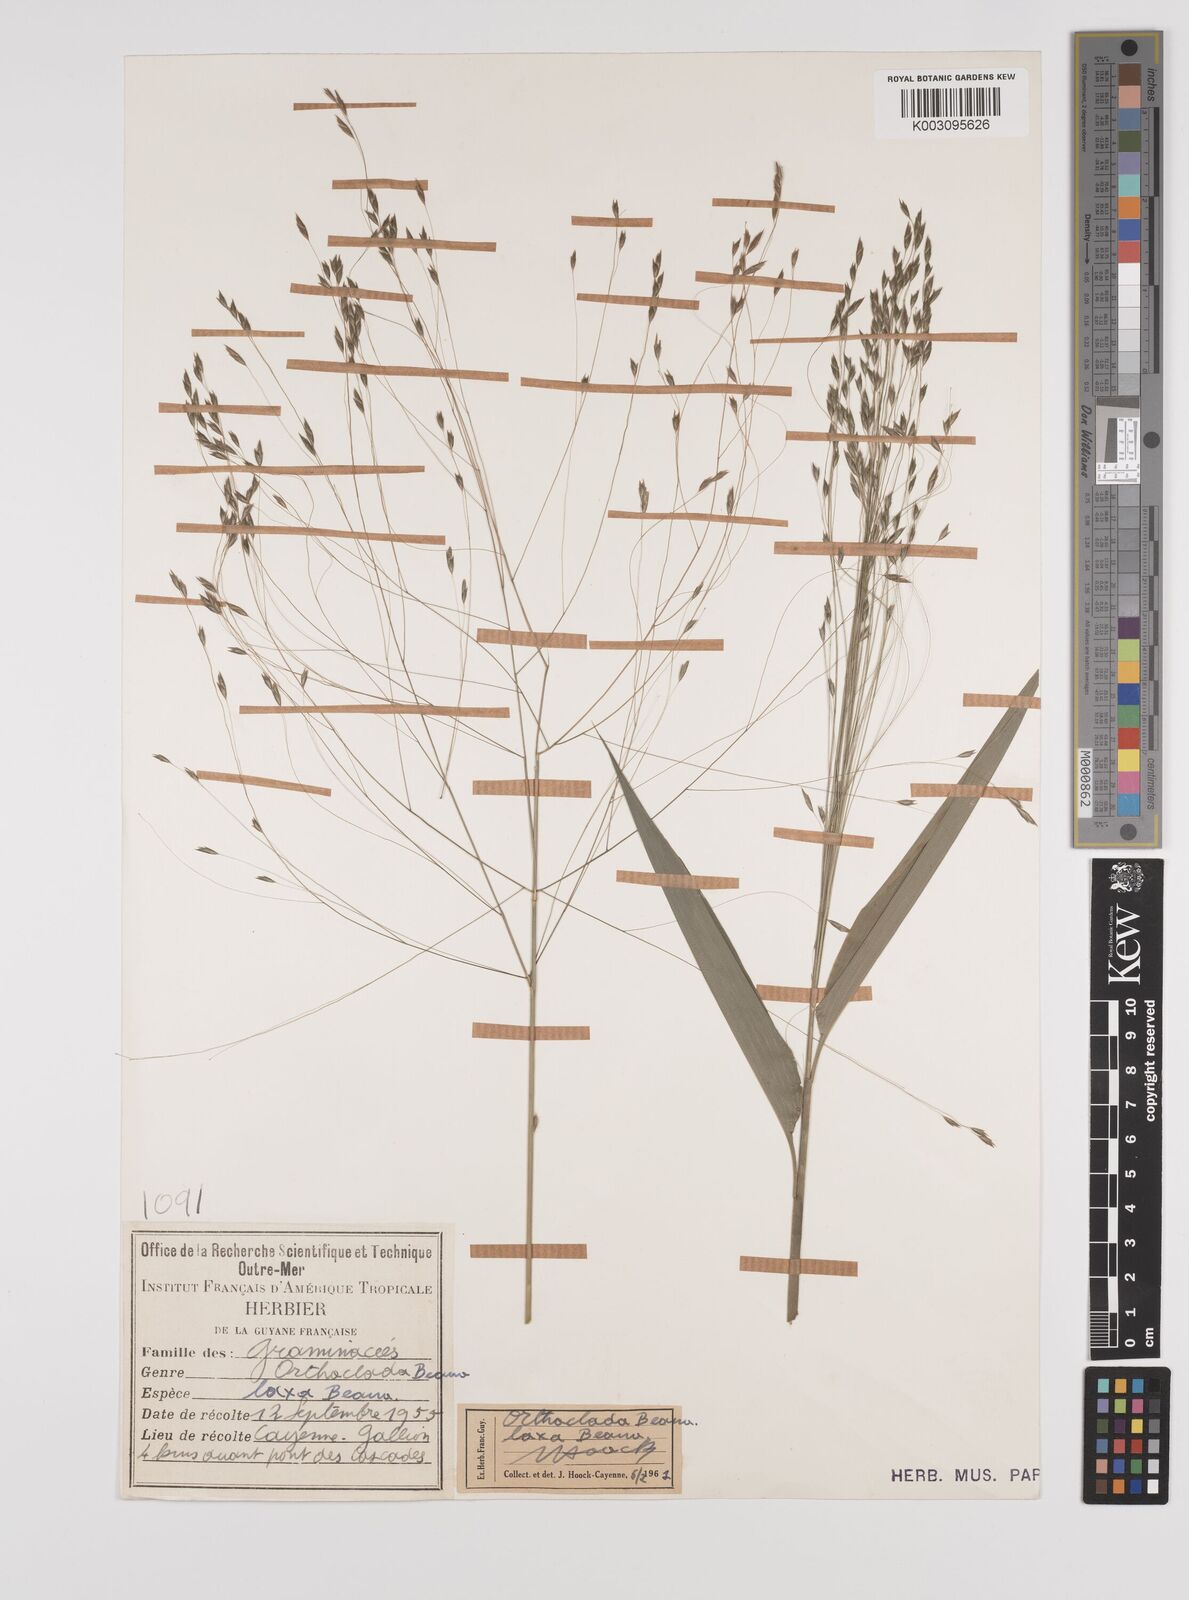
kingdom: Plantae
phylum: Tracheophyta
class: Liliopsida
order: Poales
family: Poaceae
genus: Orthoclada
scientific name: Orthoclada laxa
